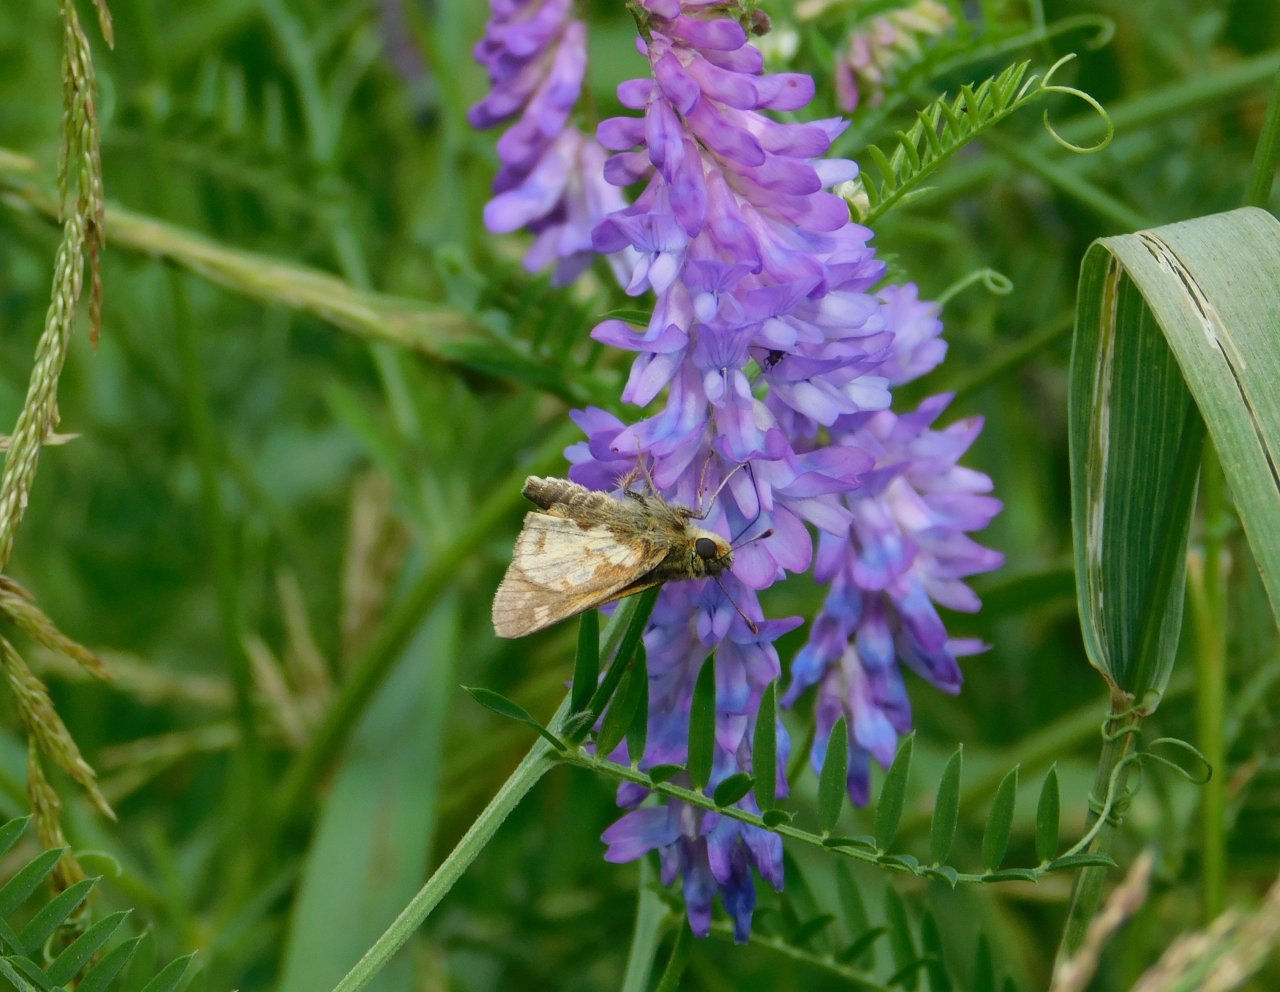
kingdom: Animalia
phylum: Arthropoda
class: Insecta
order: Lepidoptera
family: Hesperiidae
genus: Polites
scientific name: Polites coras
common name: Peck's Skipper
